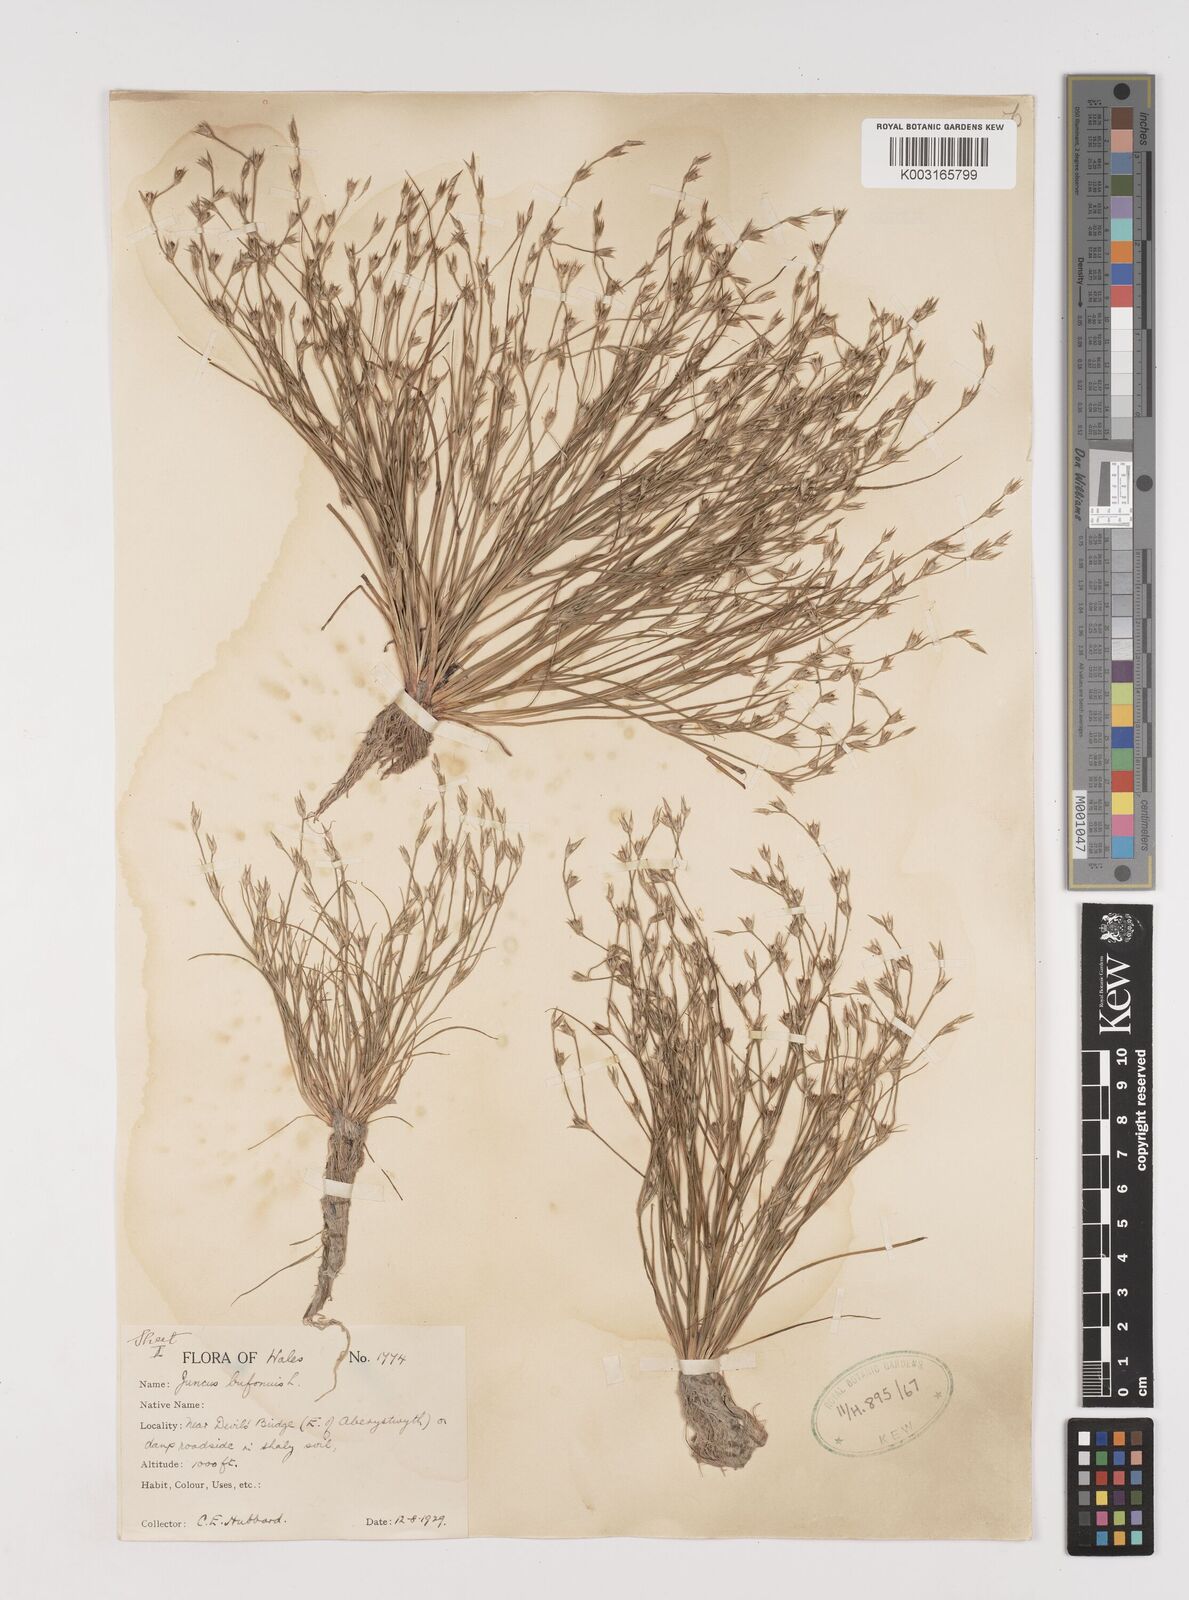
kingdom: Plantae
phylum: Tracheophyta
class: Liliopsida
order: Poales
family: Juncaceae
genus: Juncus
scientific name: Juncus bufonius
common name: Toad rush
